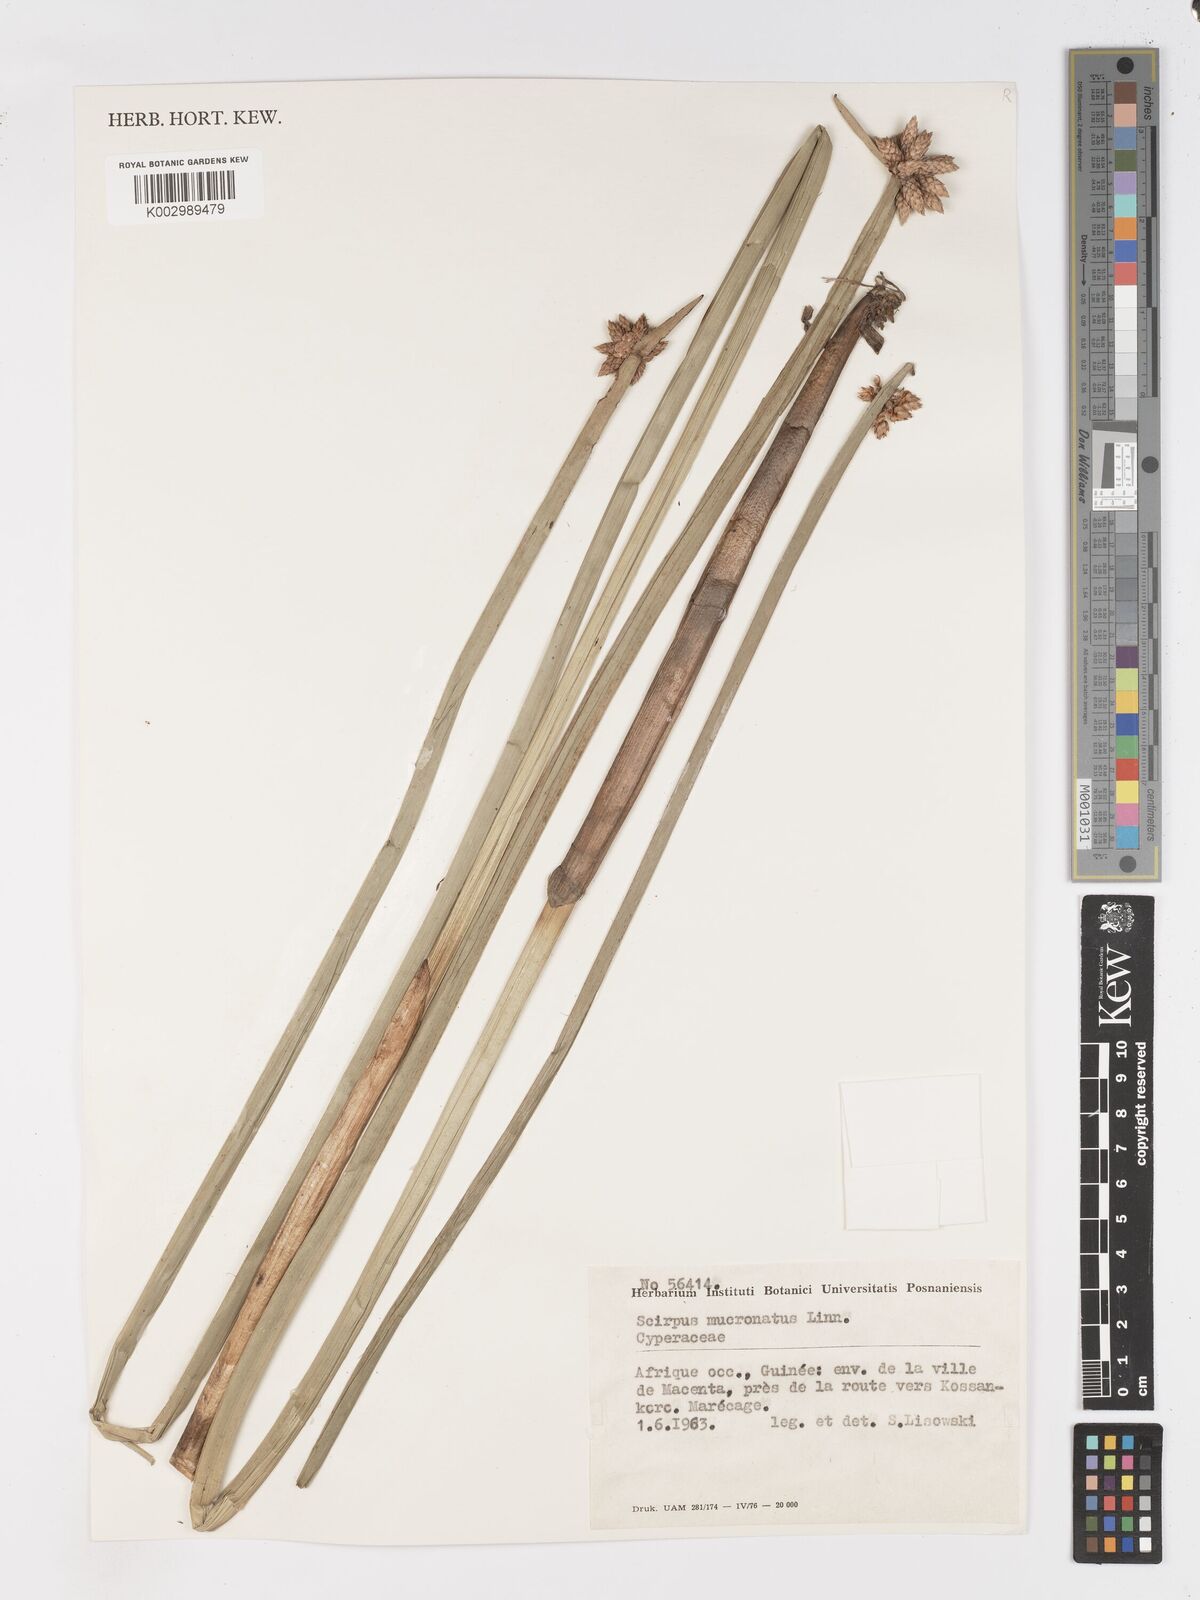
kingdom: Plantae
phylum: Tracheophyta
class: Liliopsida
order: Poales
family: Cyperaceae
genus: Schoenoplectiella
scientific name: Schoenoplectiella mucronata
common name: Bog bulrush
